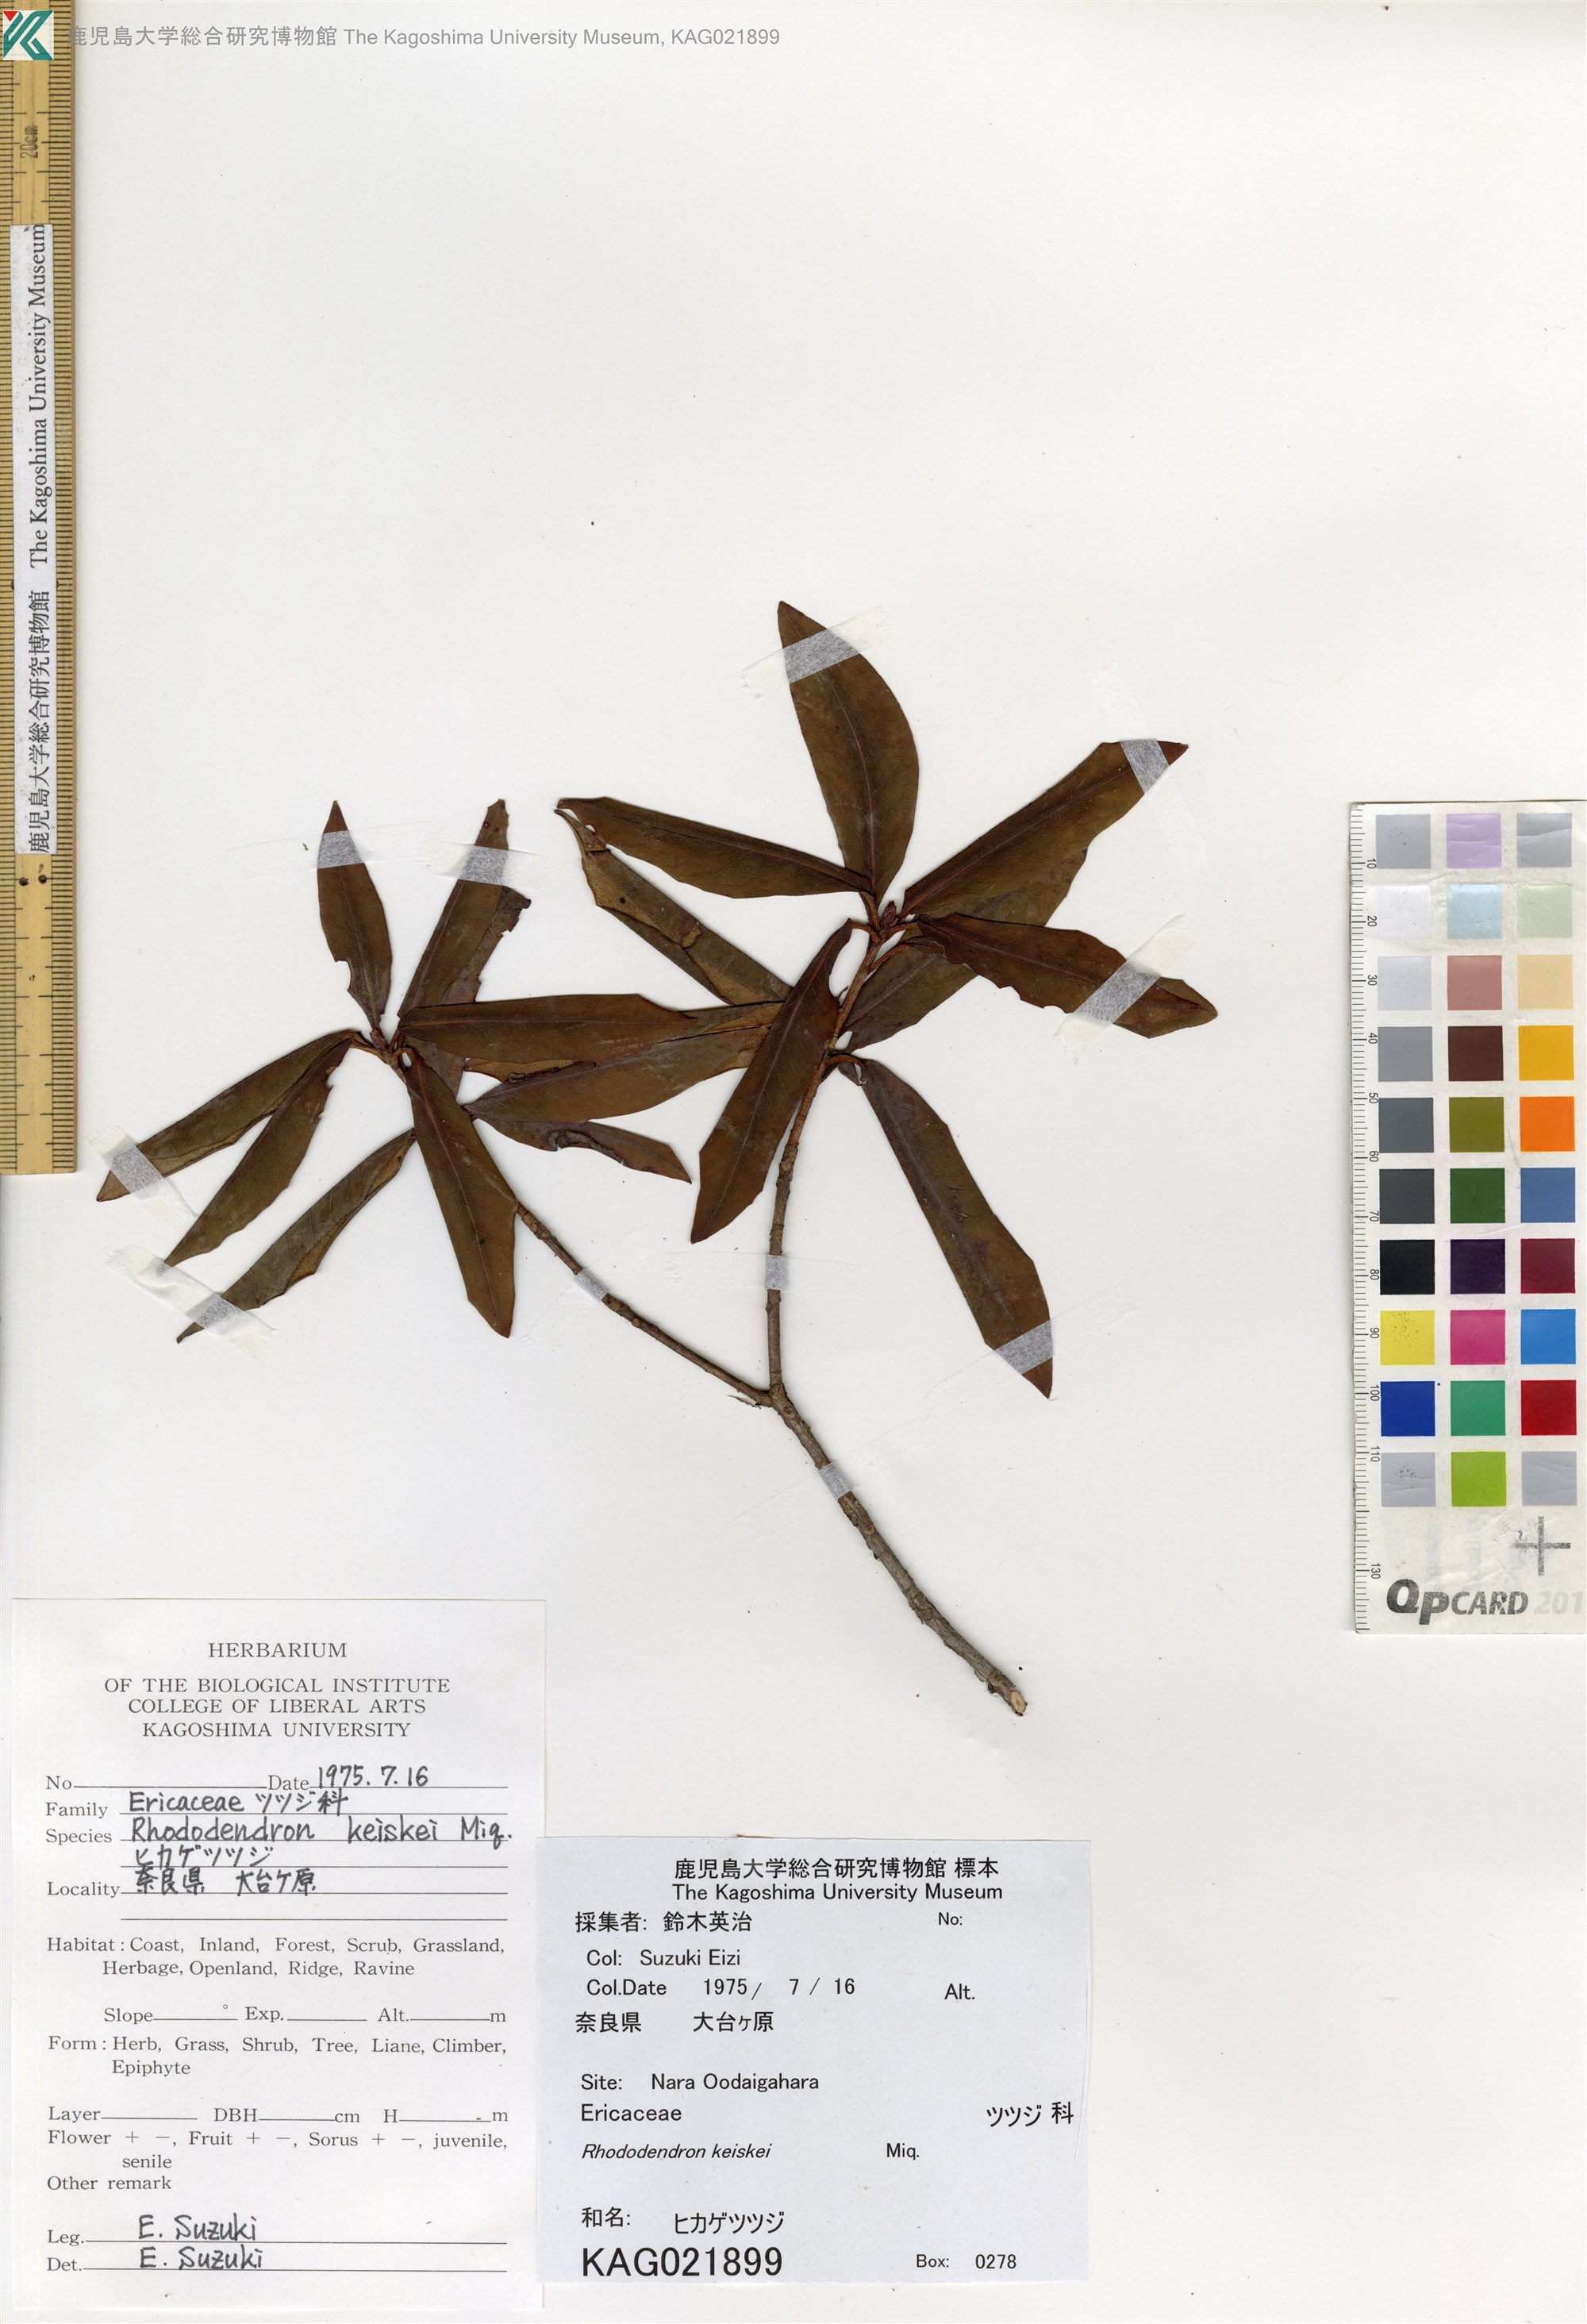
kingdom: Plantae
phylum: Tracheophyta
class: Magnoliopsida
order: Ericales
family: Ericaceae
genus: Rhododendron
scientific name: Rhododendron keiskei
